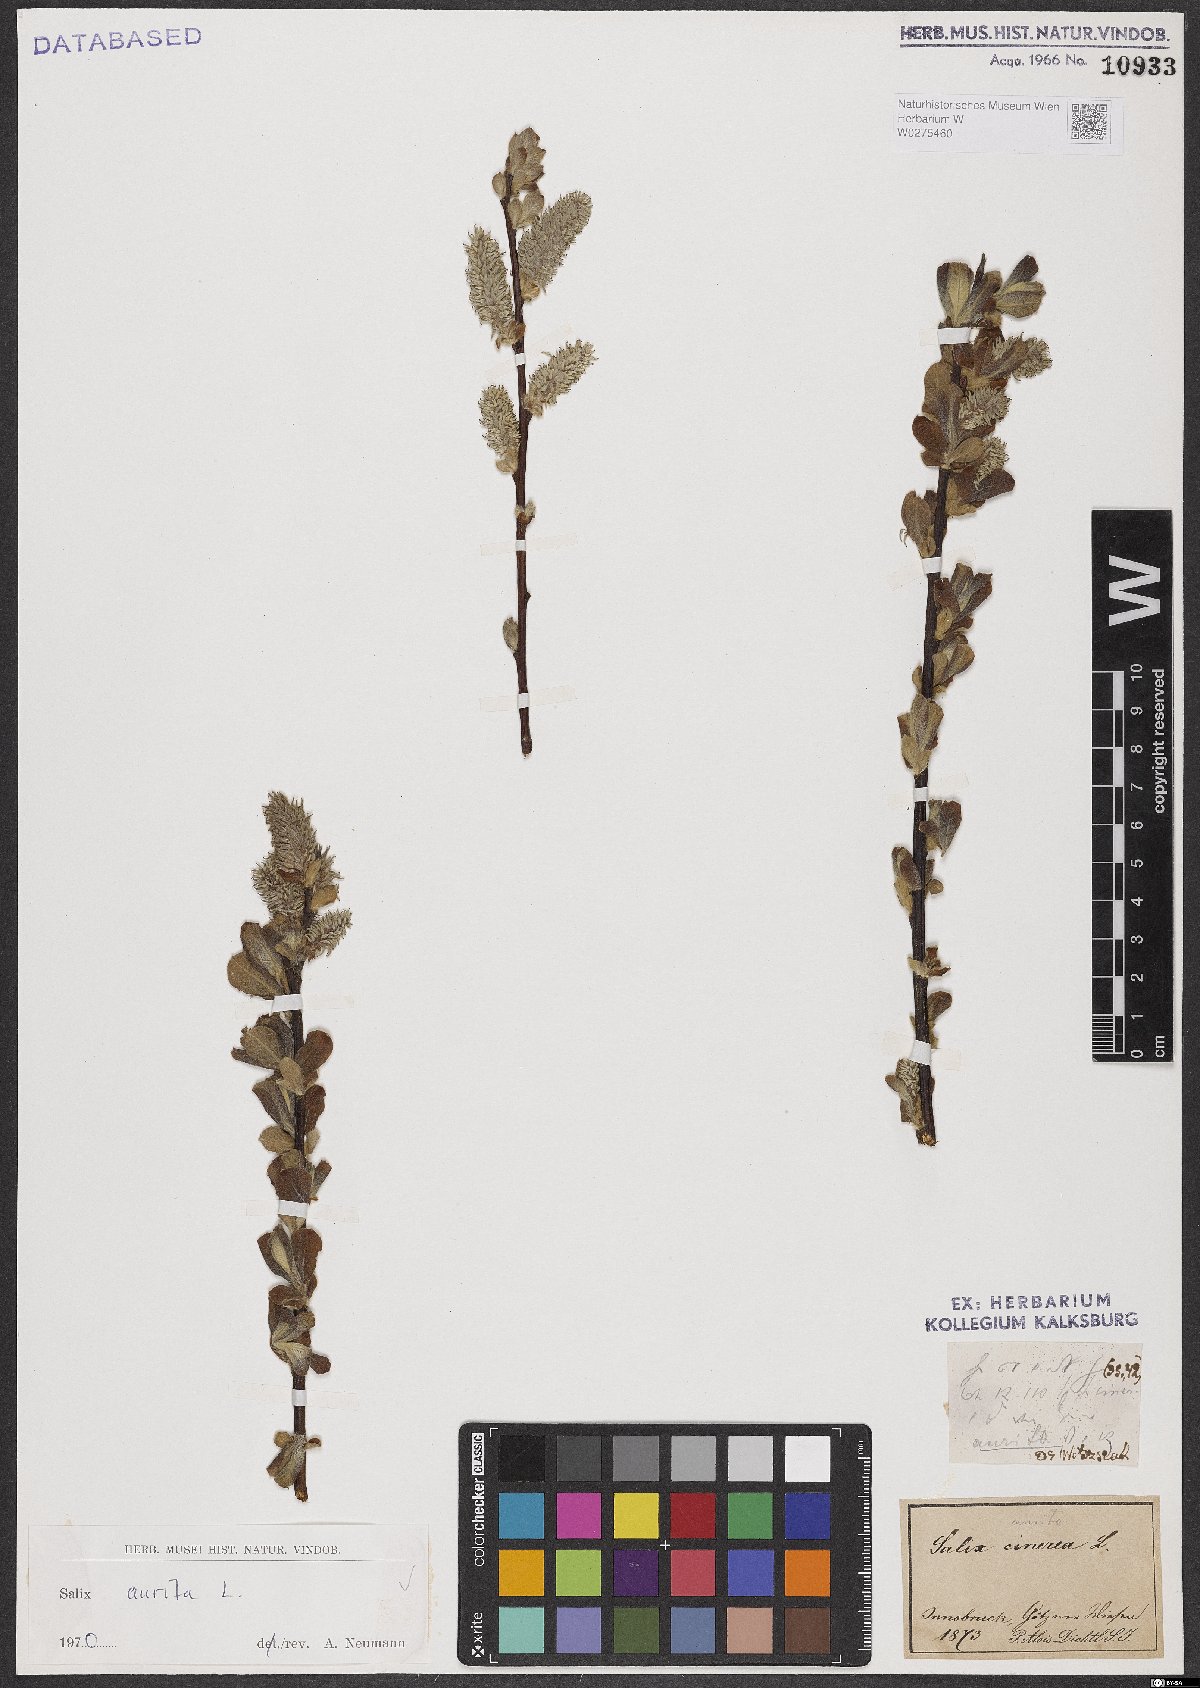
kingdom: Plantae
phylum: Tracheophyta
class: Magnoliopsida
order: Malpighiales
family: Salicaceae
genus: Salix
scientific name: Salix aurita
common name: Eared willow
